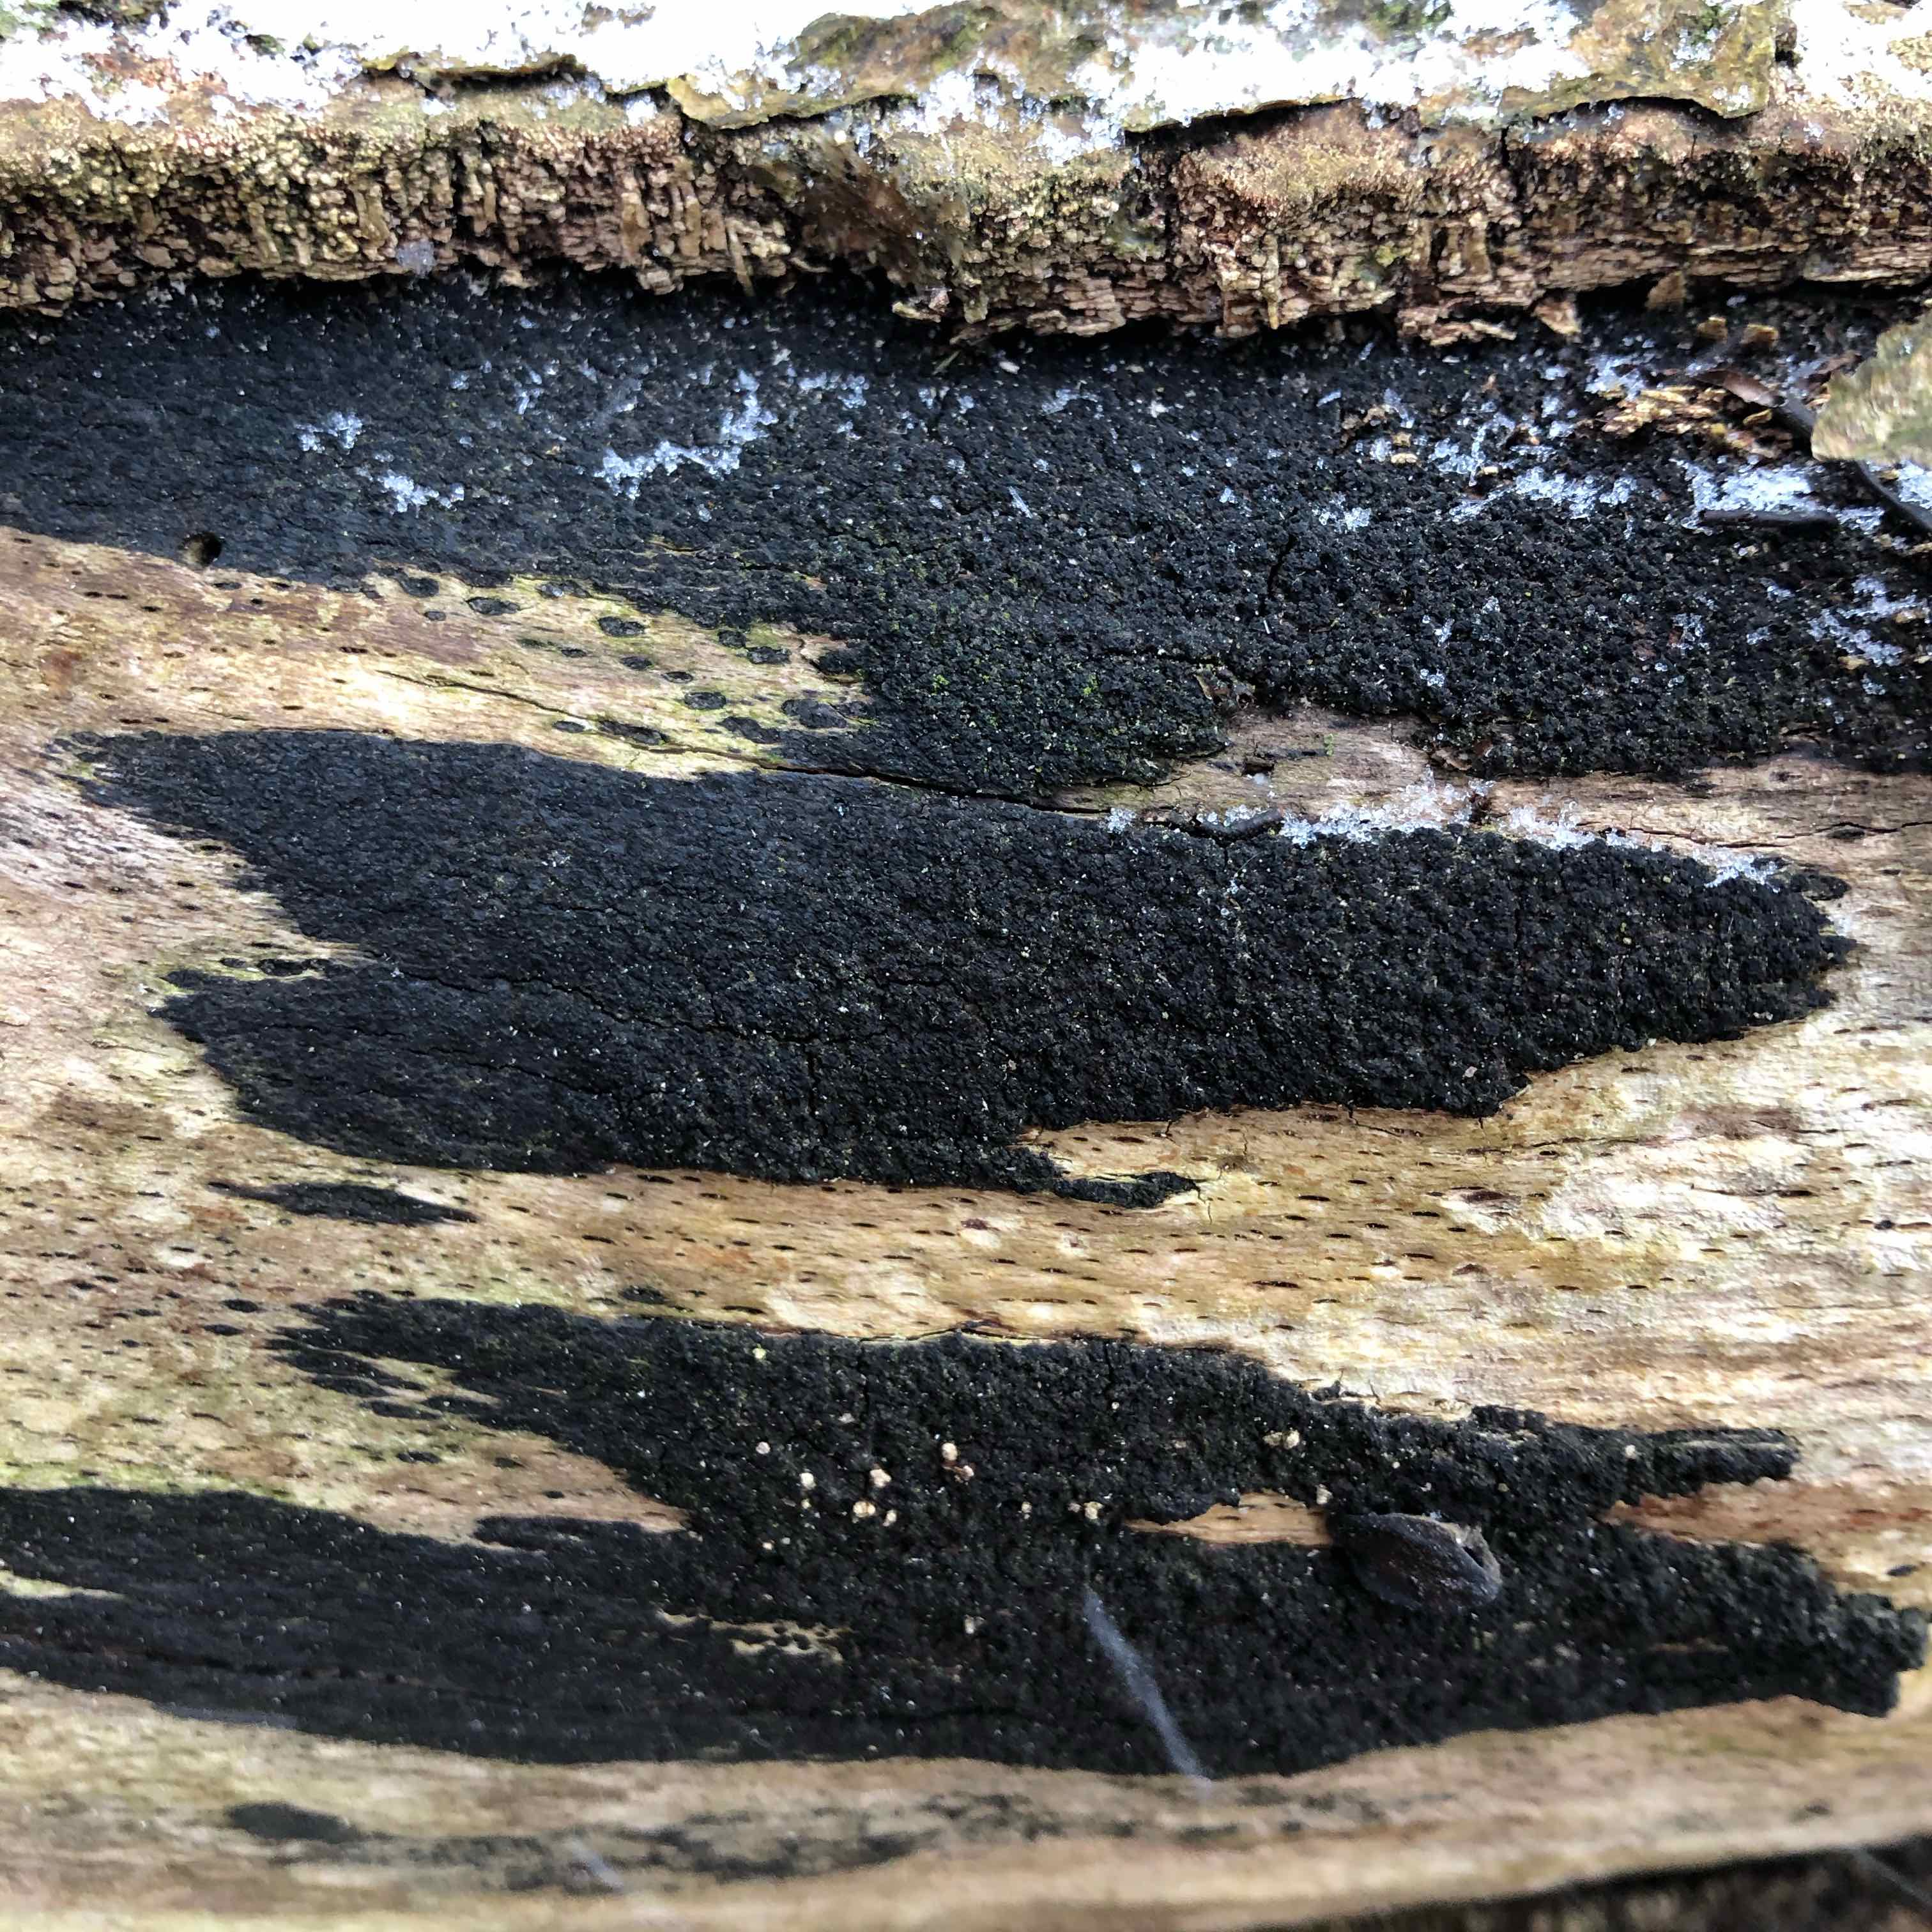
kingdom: Fungi
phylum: Ascomycota
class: Sordariomycetes
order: Xylariales
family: Diatrypaceae
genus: Eutypa
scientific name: Eutypa spinosa
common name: grov kulskorpe
